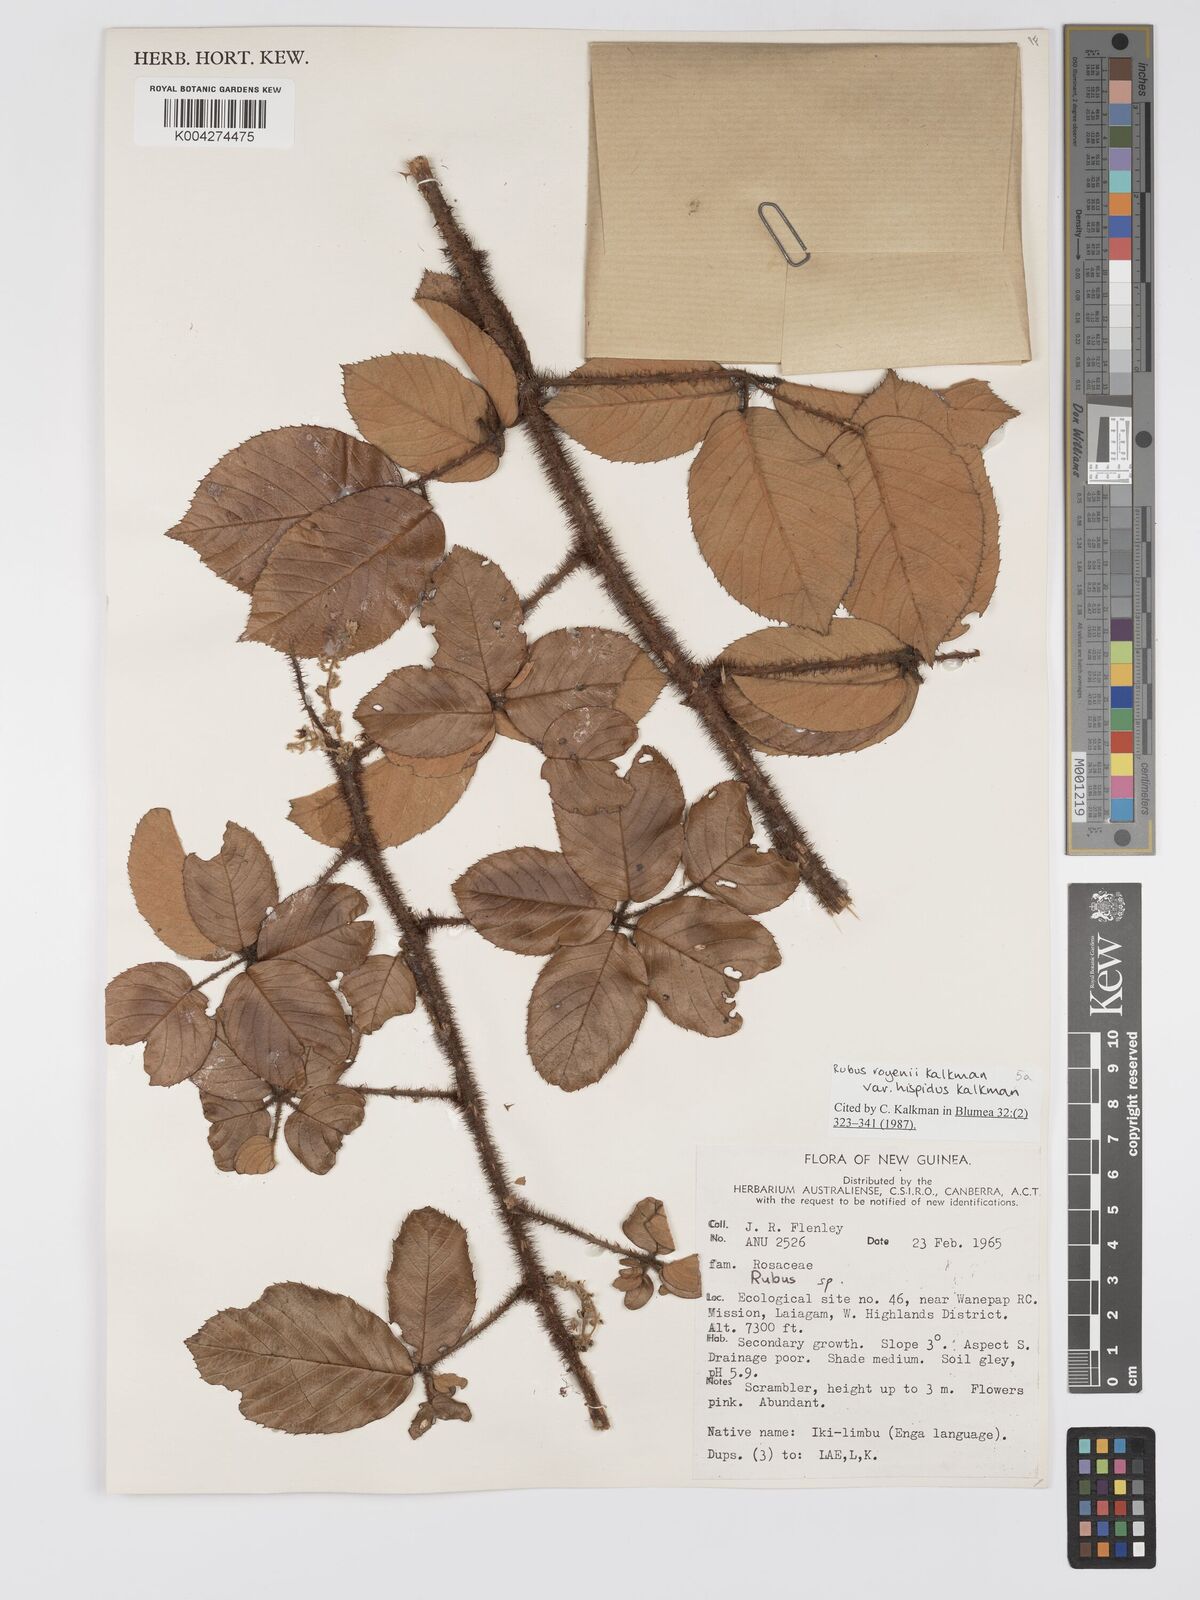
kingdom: Plantae
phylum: Tracheophyta
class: Magnoliopsida
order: Rosales
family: Rosaceae
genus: Rubus
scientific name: Rubus royenii
